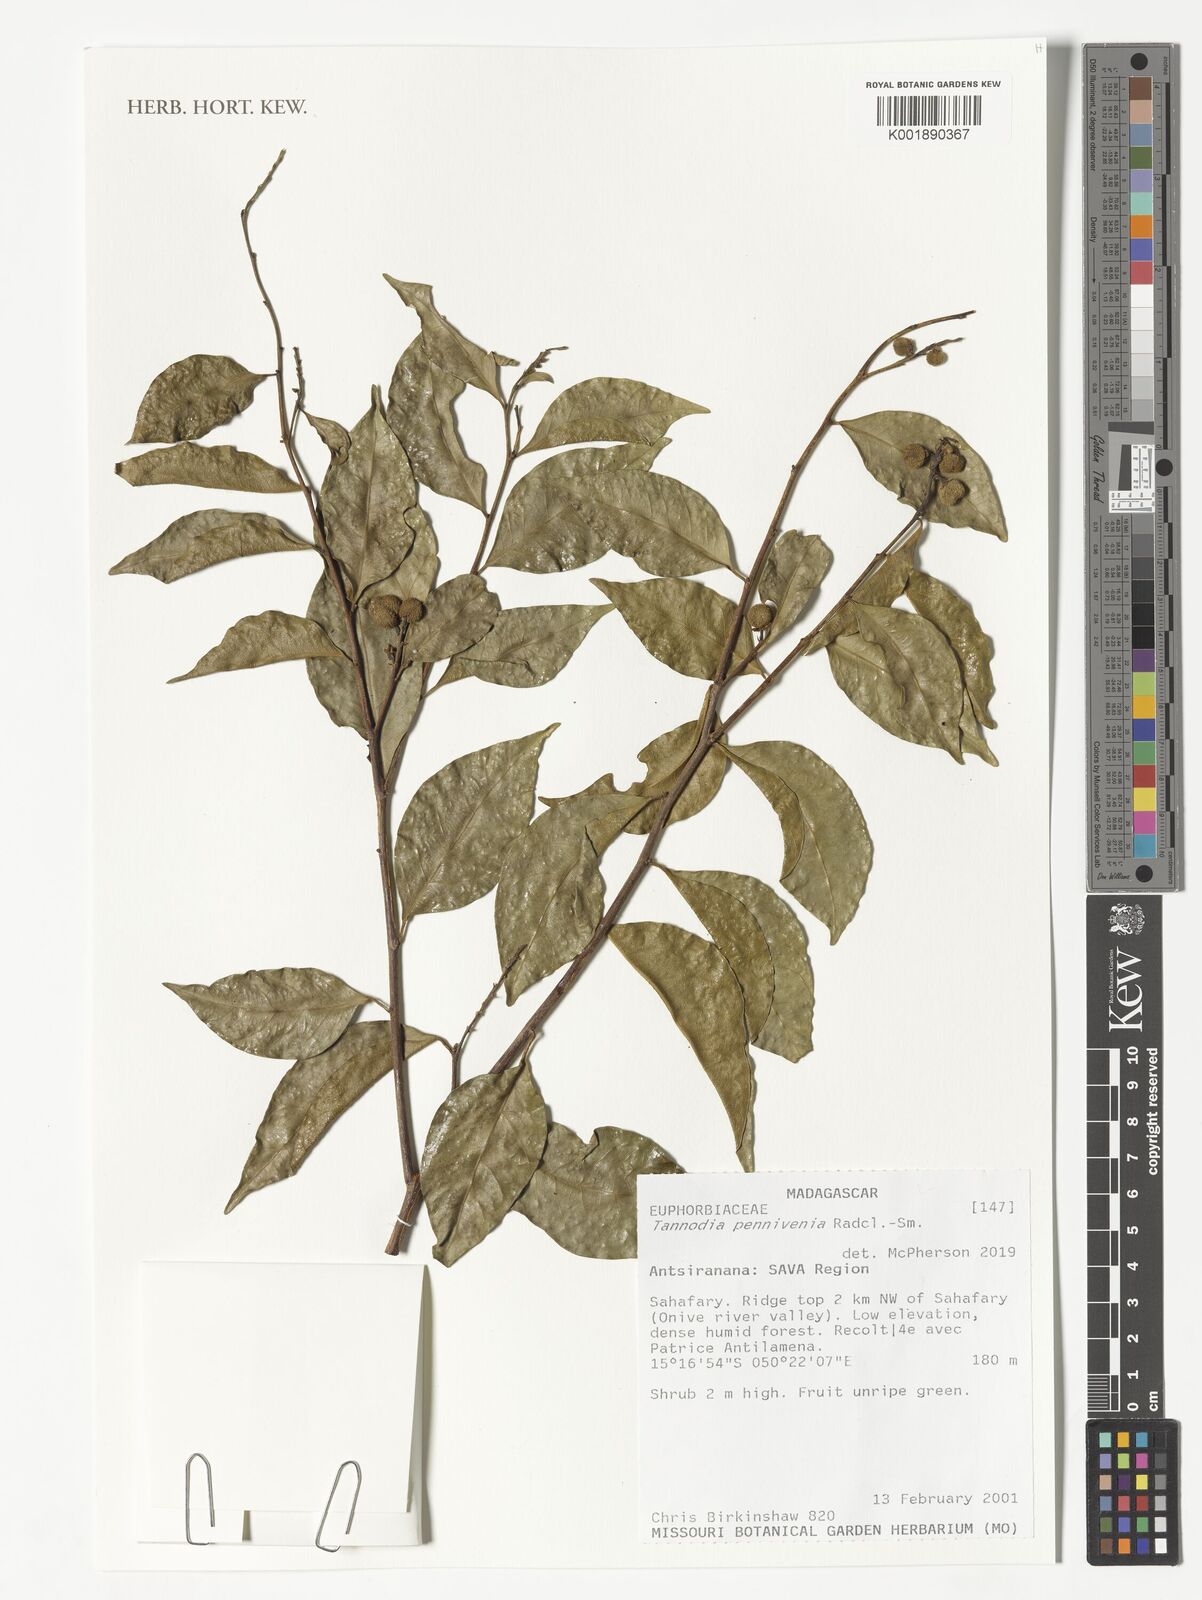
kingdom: Plantae
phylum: Tracheophyta
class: Magnoliopsida
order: Malpighiales
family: Euphorbiaceae
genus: Tannodia
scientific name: Tannodia pennivenia
